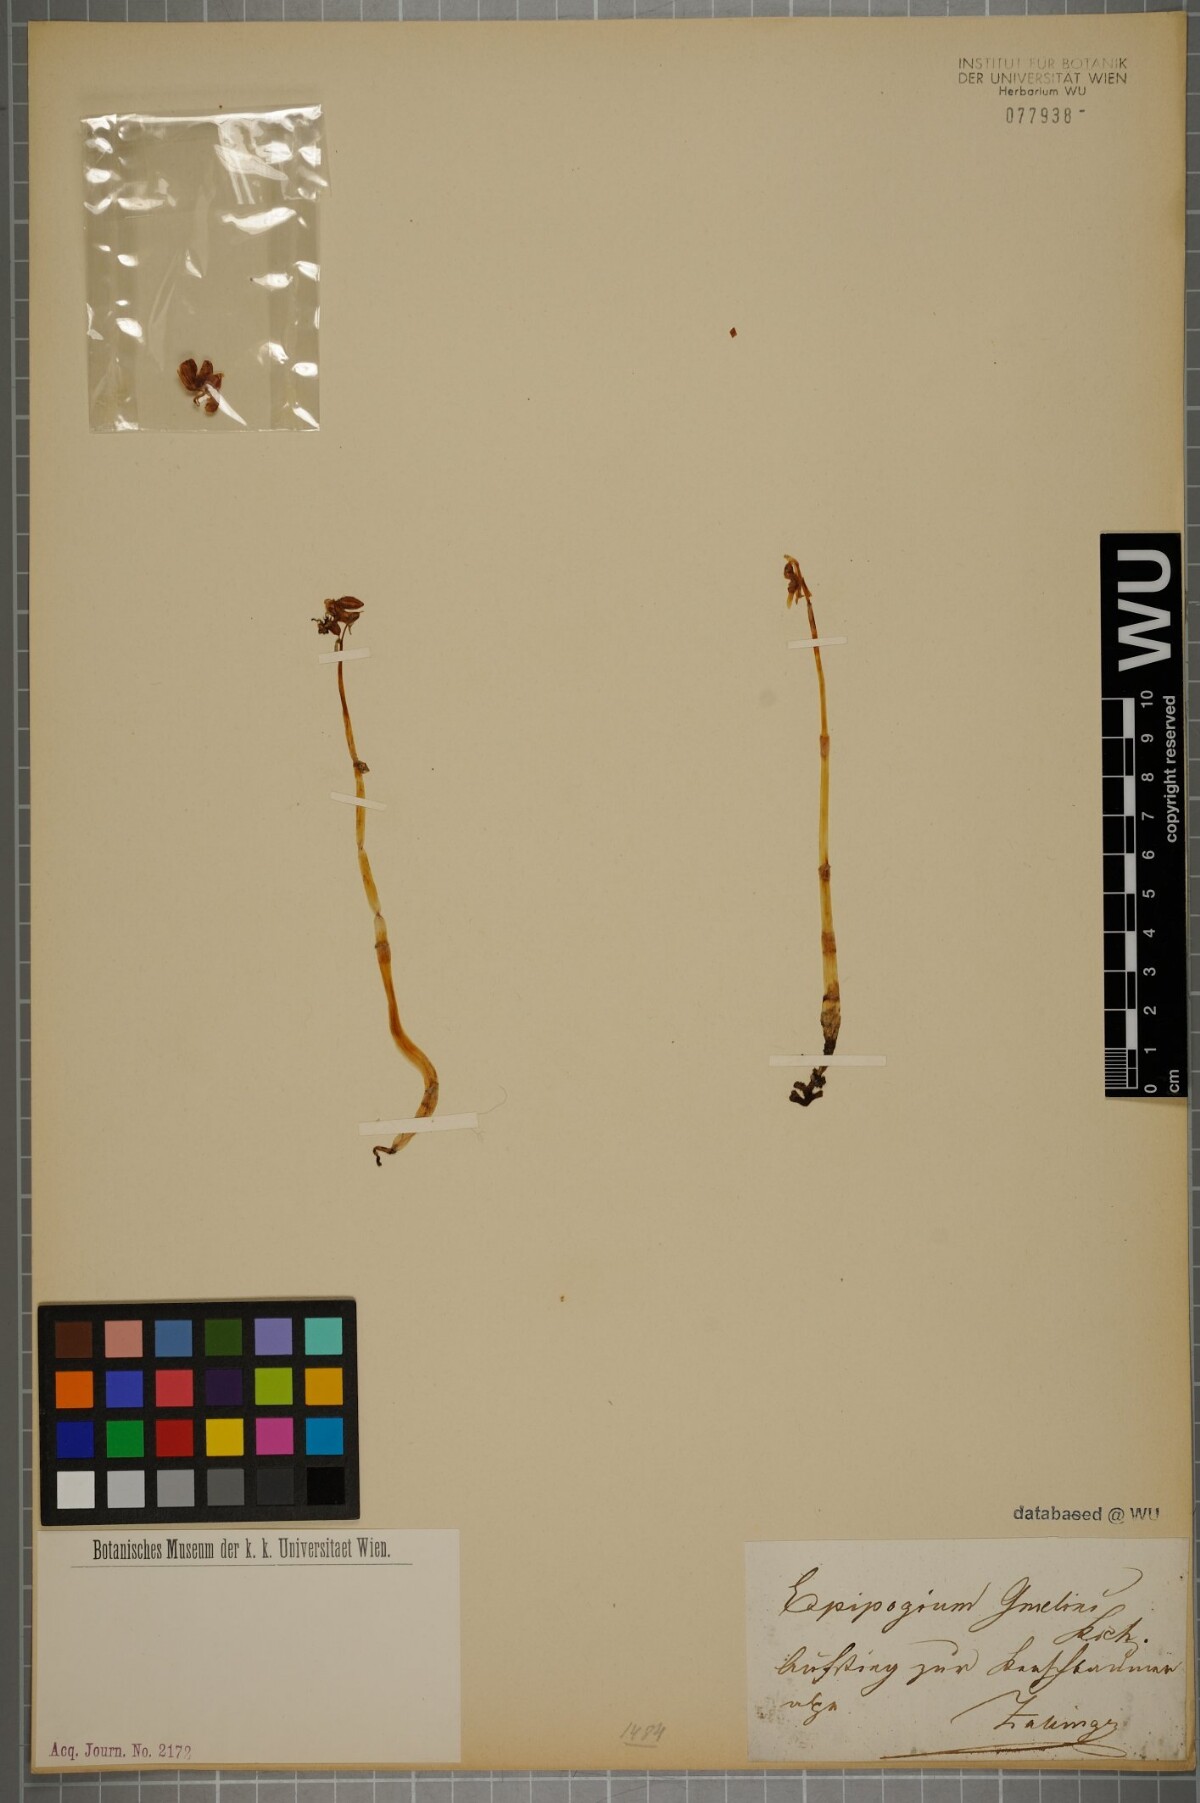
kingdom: Plantae
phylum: Tracheophyta
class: Liliopsida
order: Asparagales
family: Orchidaceae
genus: Epipogium
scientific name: Epipogium aphyllum
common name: Ghost orchid
